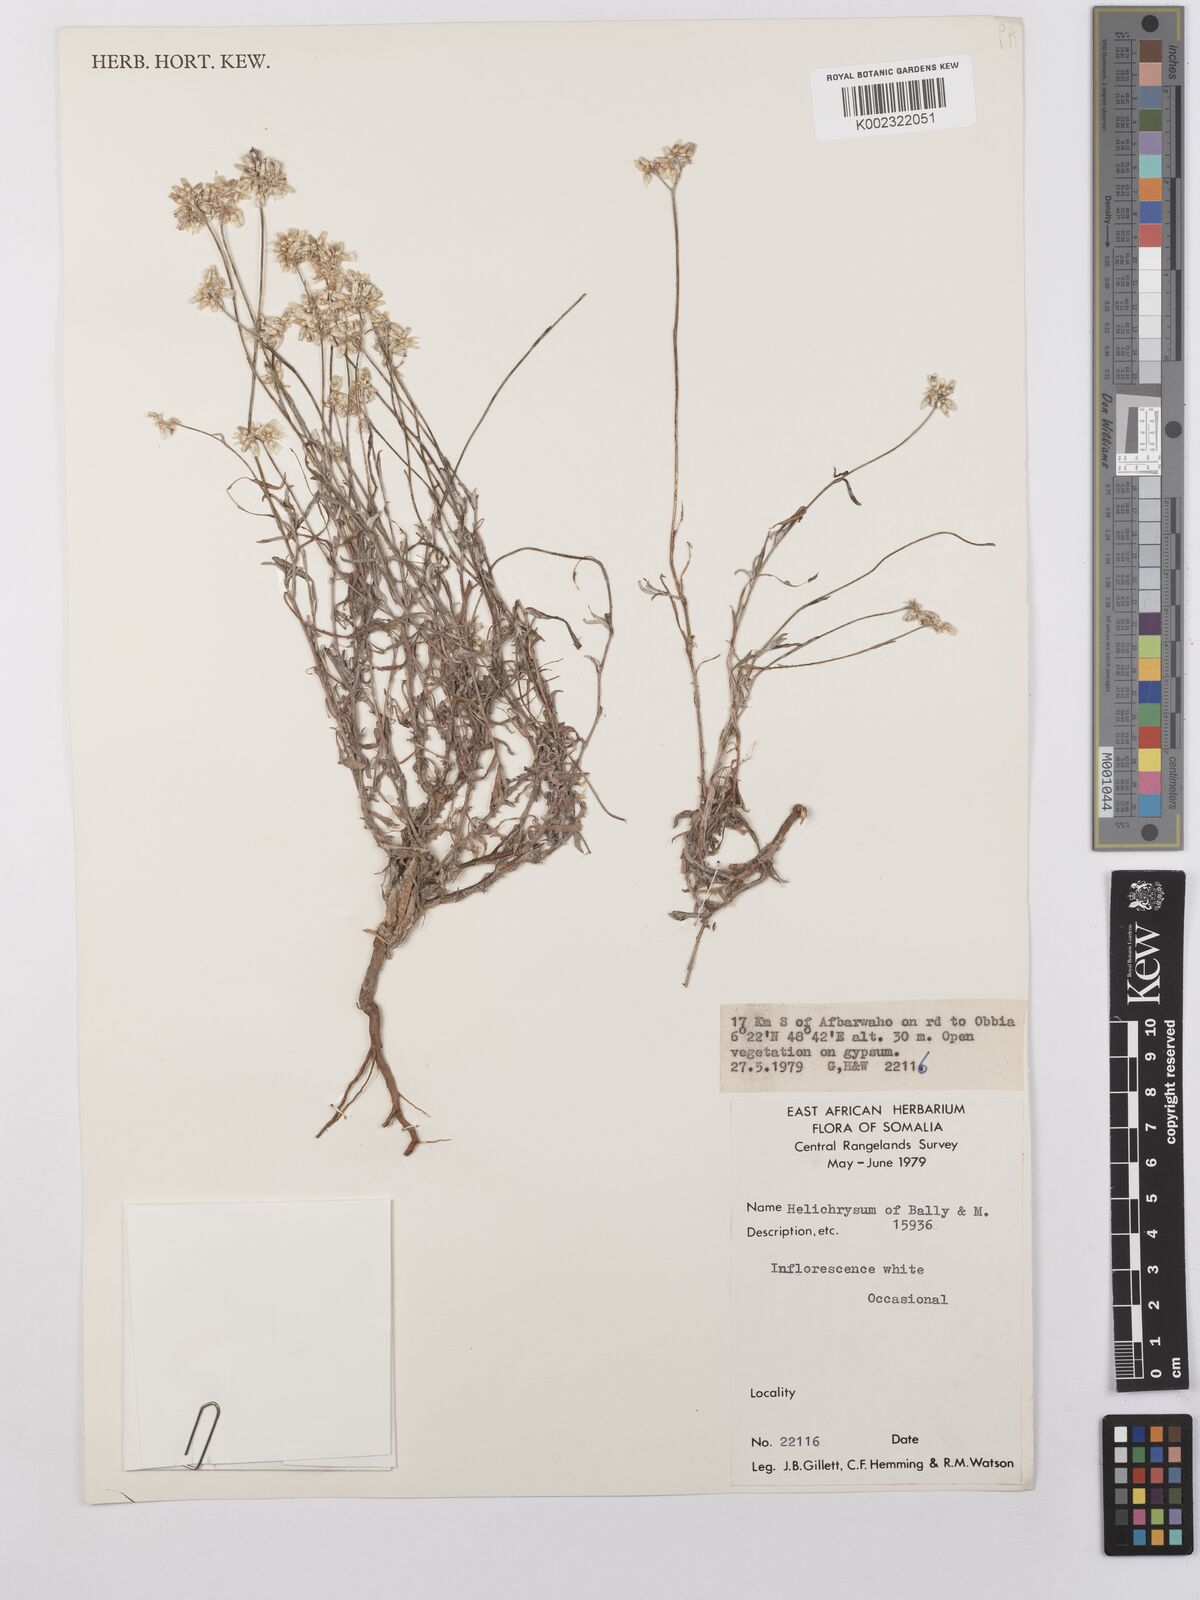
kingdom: Plantae
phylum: Tracheophyta
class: Magnoliopsida
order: Asterales
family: Asteraceae
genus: Helichrysum
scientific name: Helichrysum glumaceum
